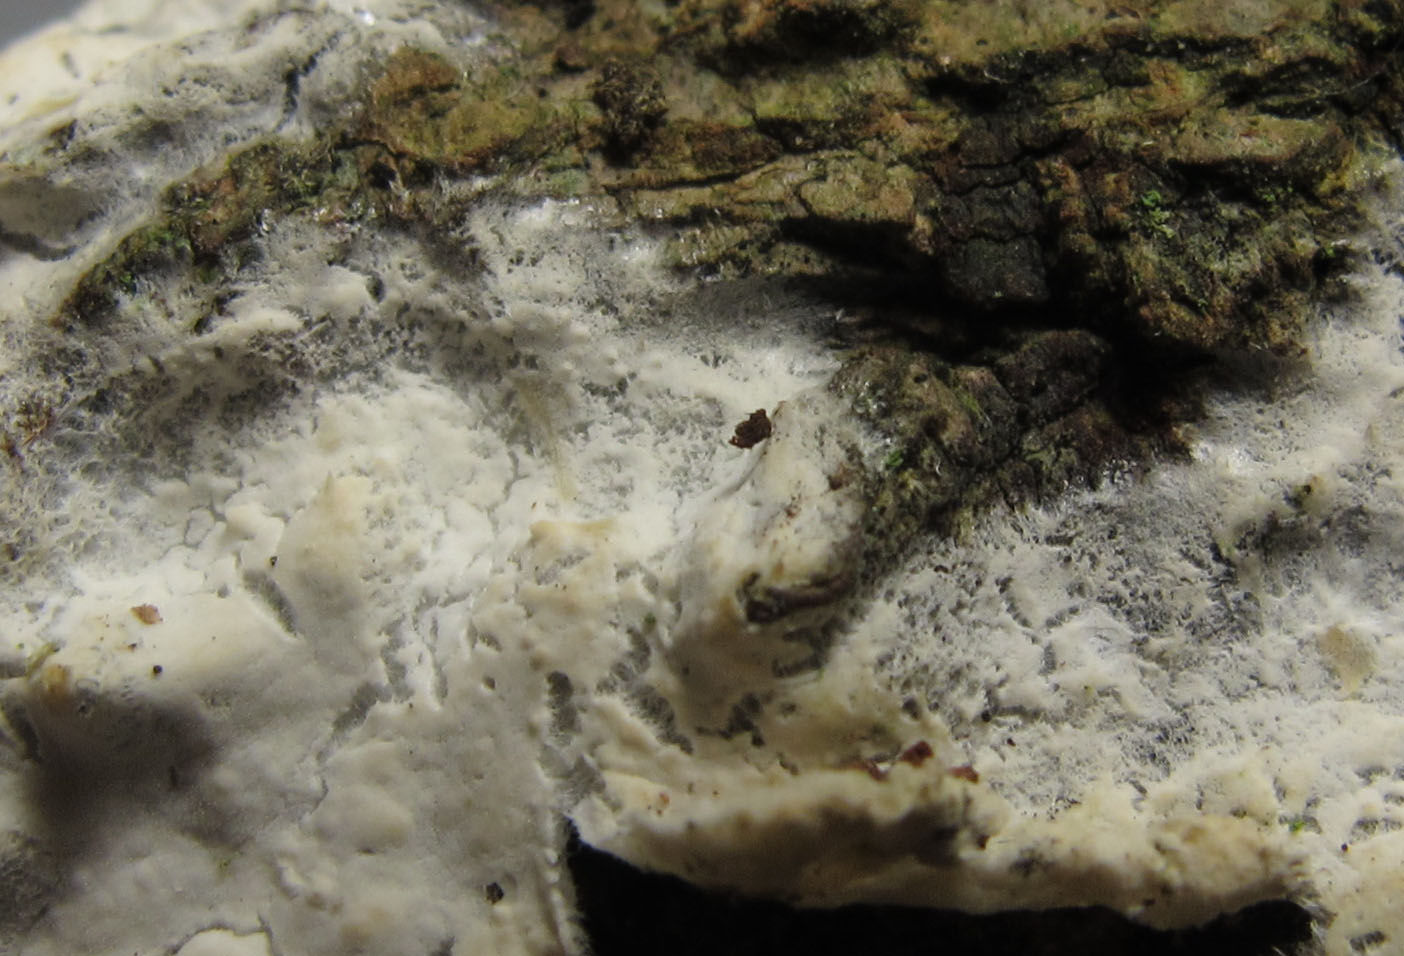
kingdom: Fungi
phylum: Basidiomycota
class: Agaricomycetes
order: Polyporales
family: Meruliaceae
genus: Hypochnicium
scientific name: Hypochnicium bombycinum
